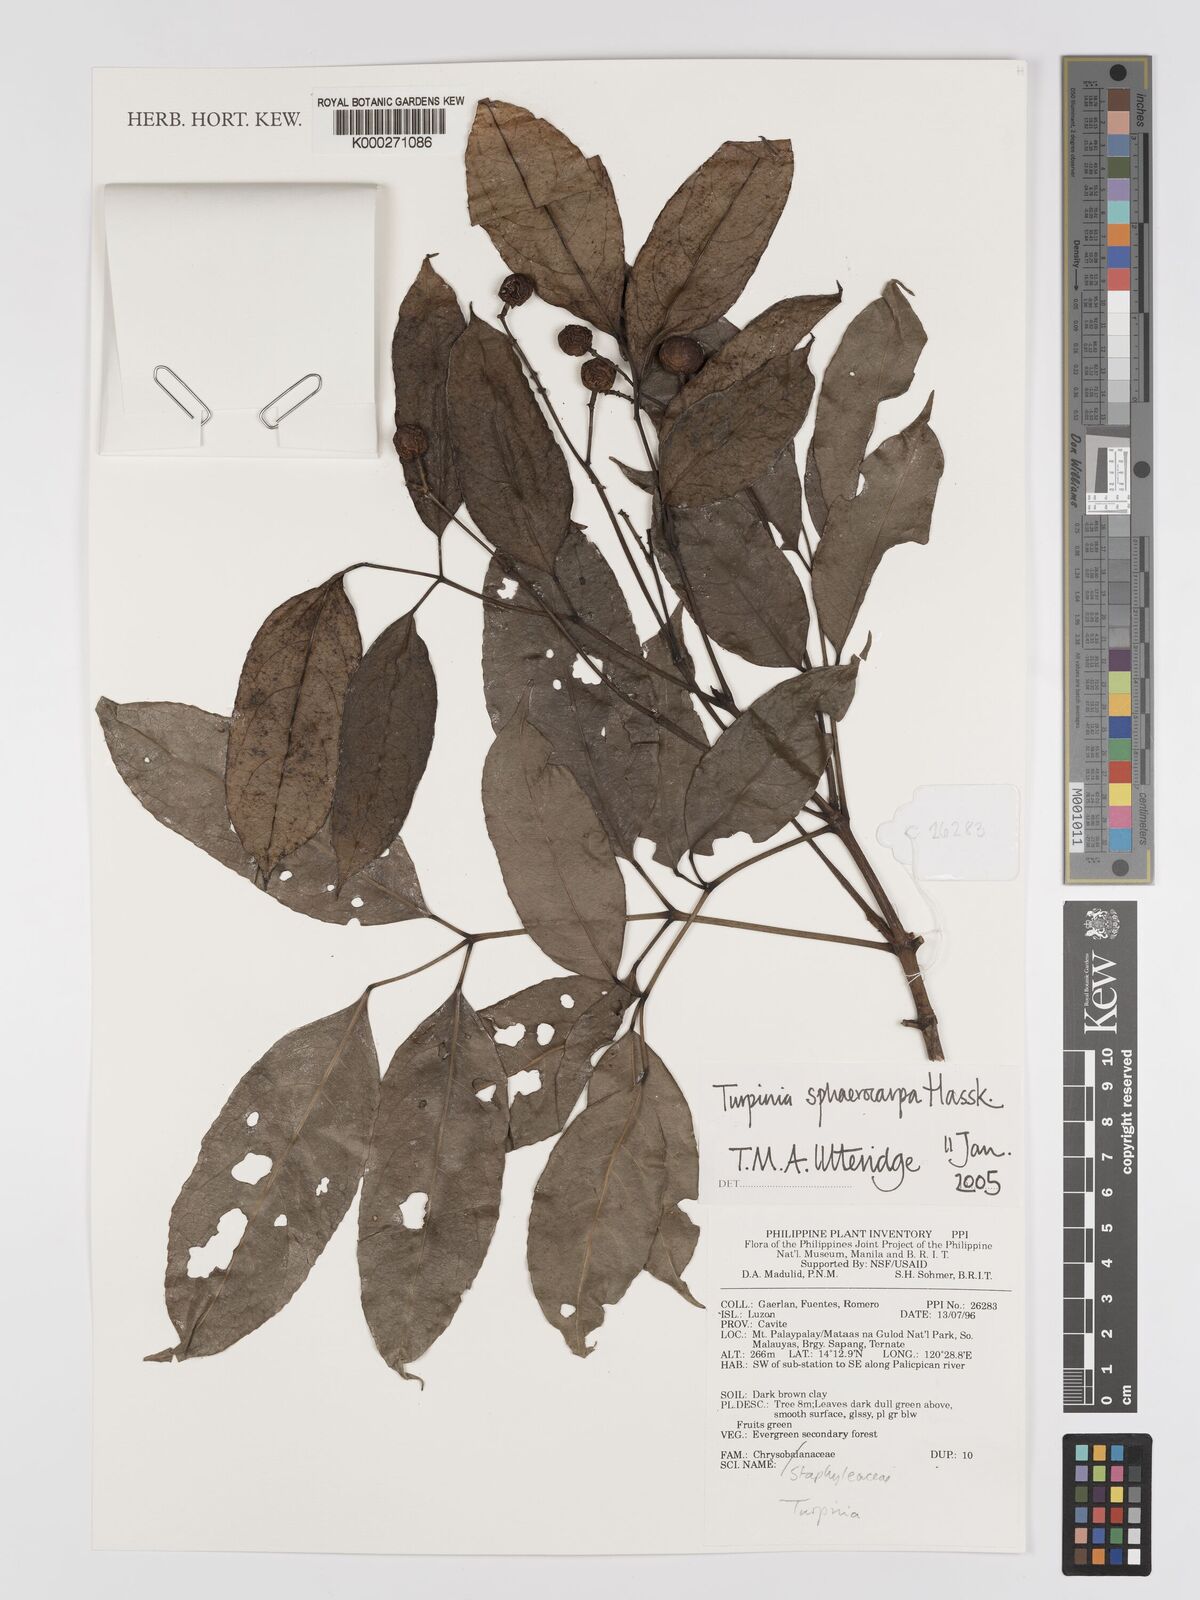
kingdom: Plantae
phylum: Tracheophyta
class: Magnoliopsida
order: Crossosomatales
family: Staphyleaceae
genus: Dalrympelea
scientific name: Dalrympelea sphaerocarpa
